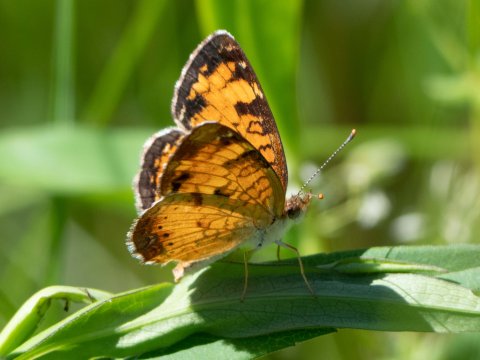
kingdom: Animalia
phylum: Arthropoda
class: Insecta
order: Lepidoptera
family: Nymphalidae
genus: Phyciodes
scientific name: Phyciodes
